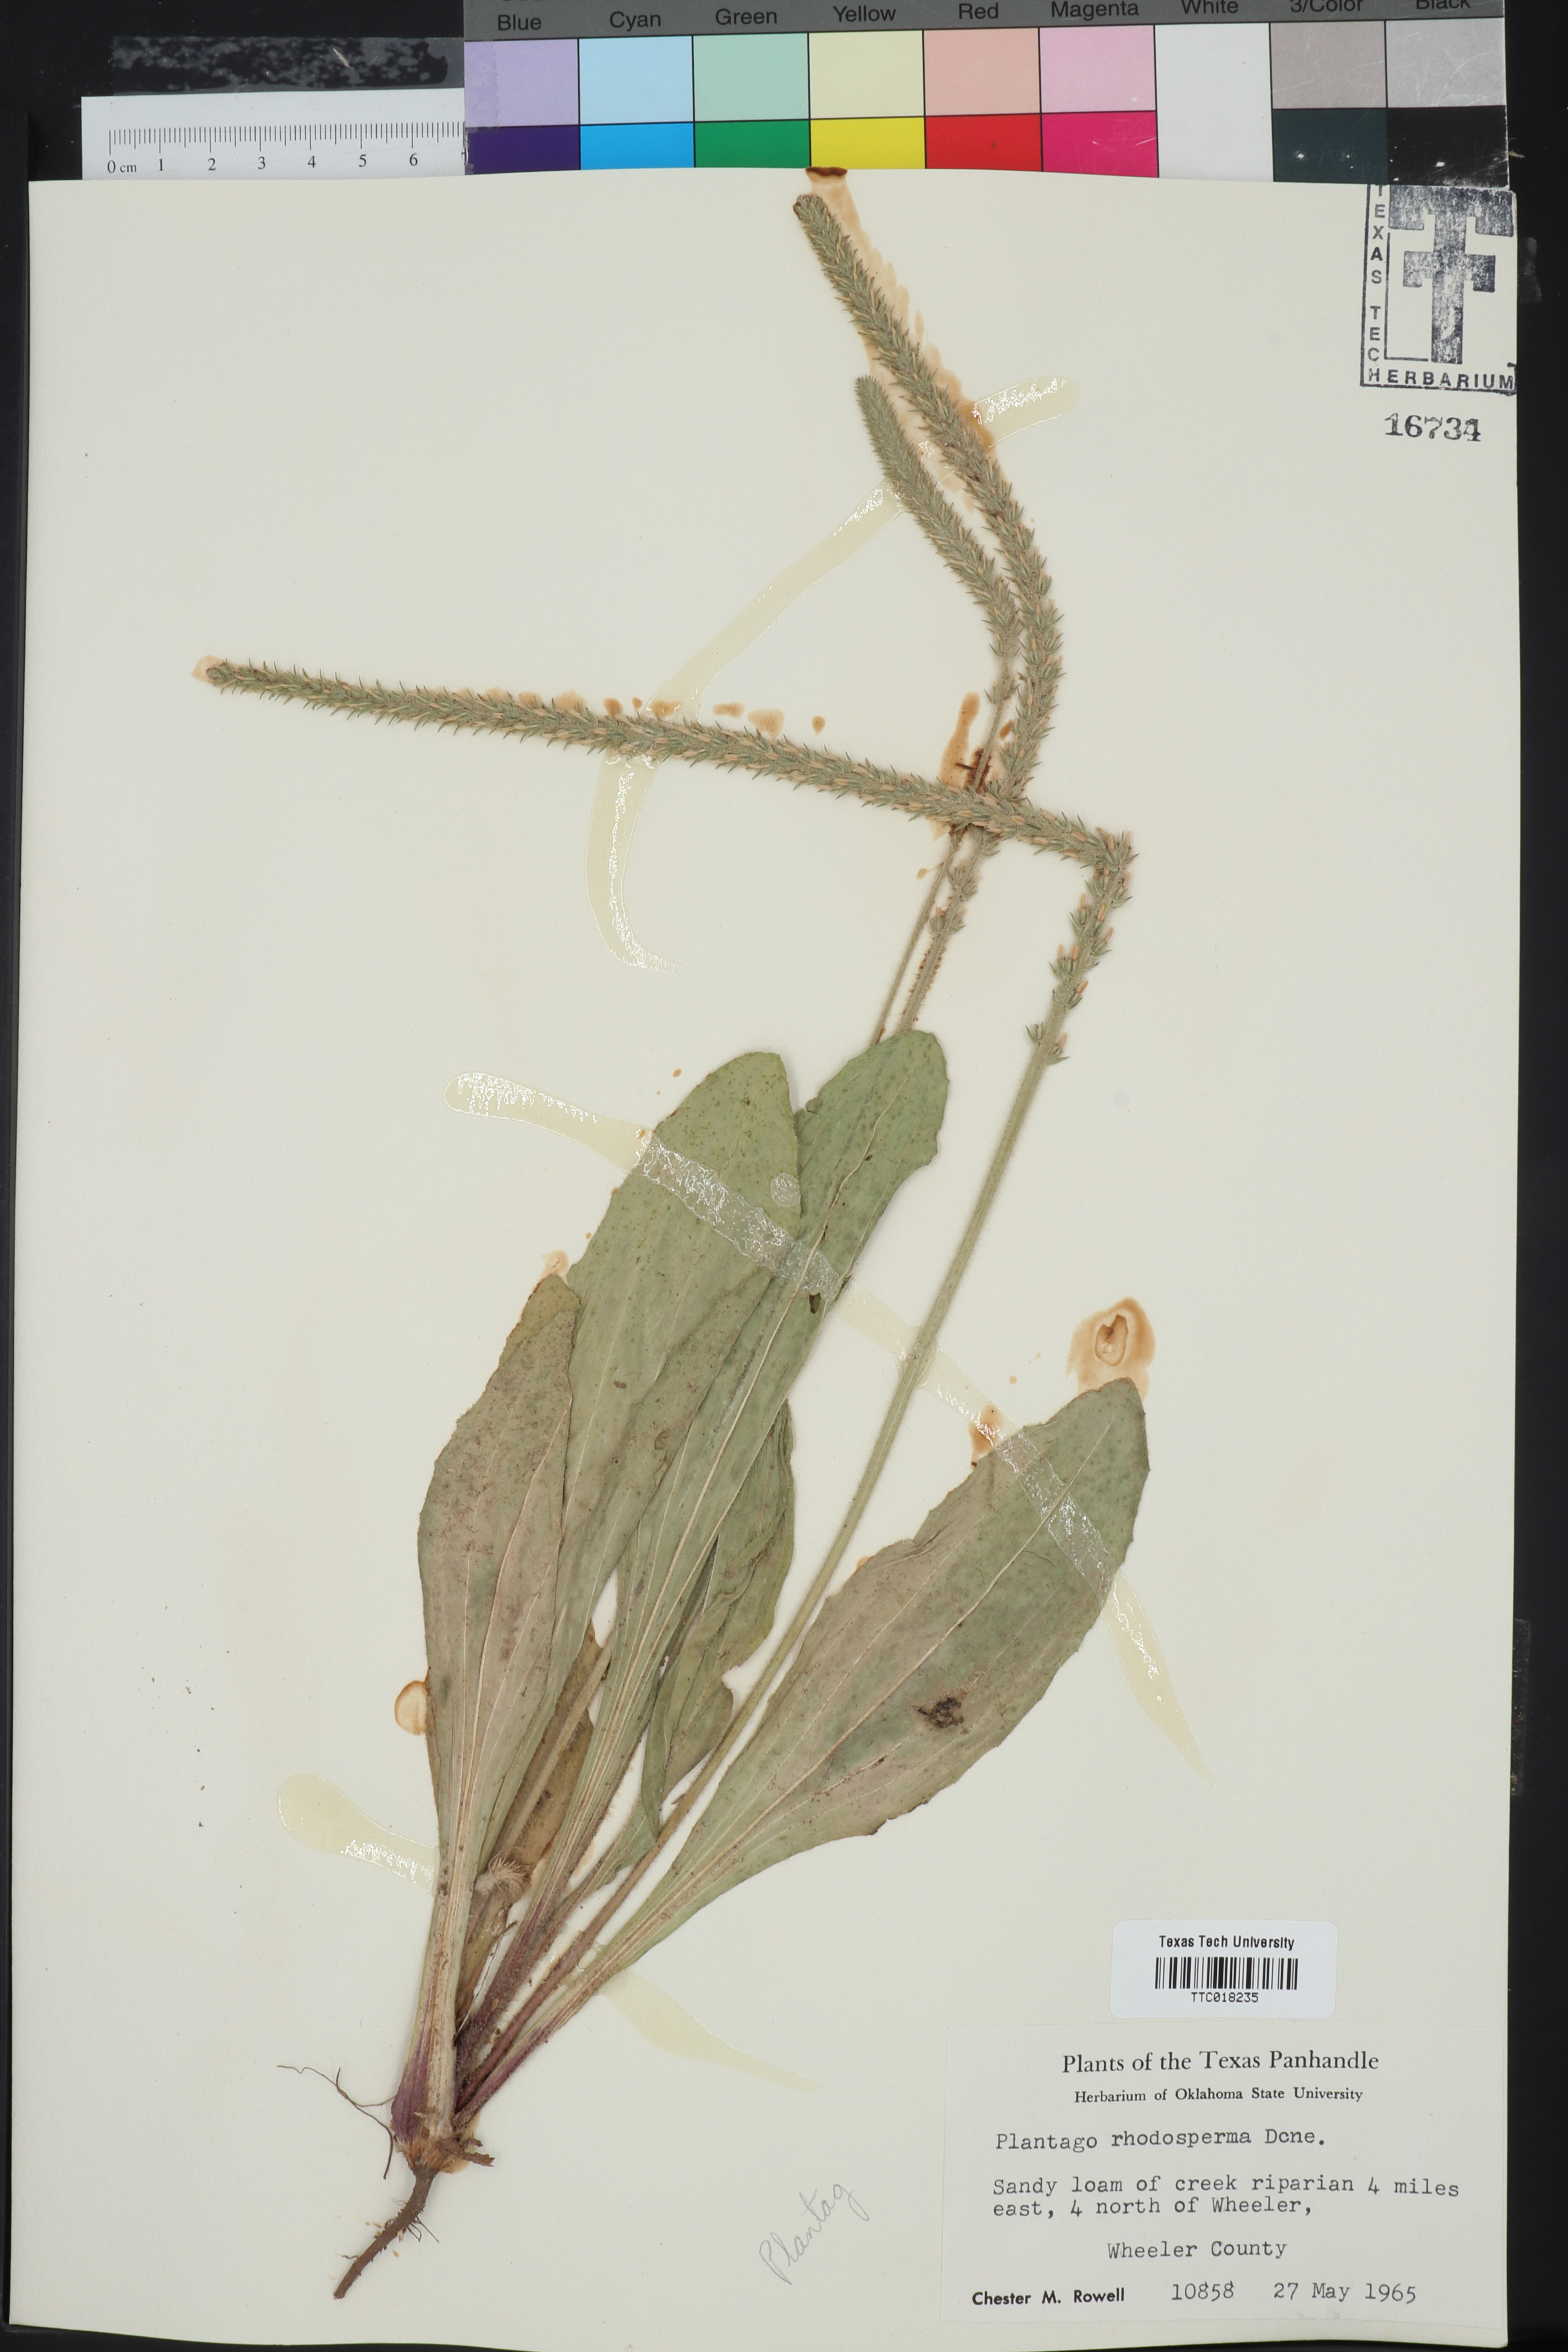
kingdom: Plantae
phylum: Tracheophyta
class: Magnoliopsida
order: Lamiales
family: Plantaginaceae
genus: Plantago
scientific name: Plantago rhodosperma
